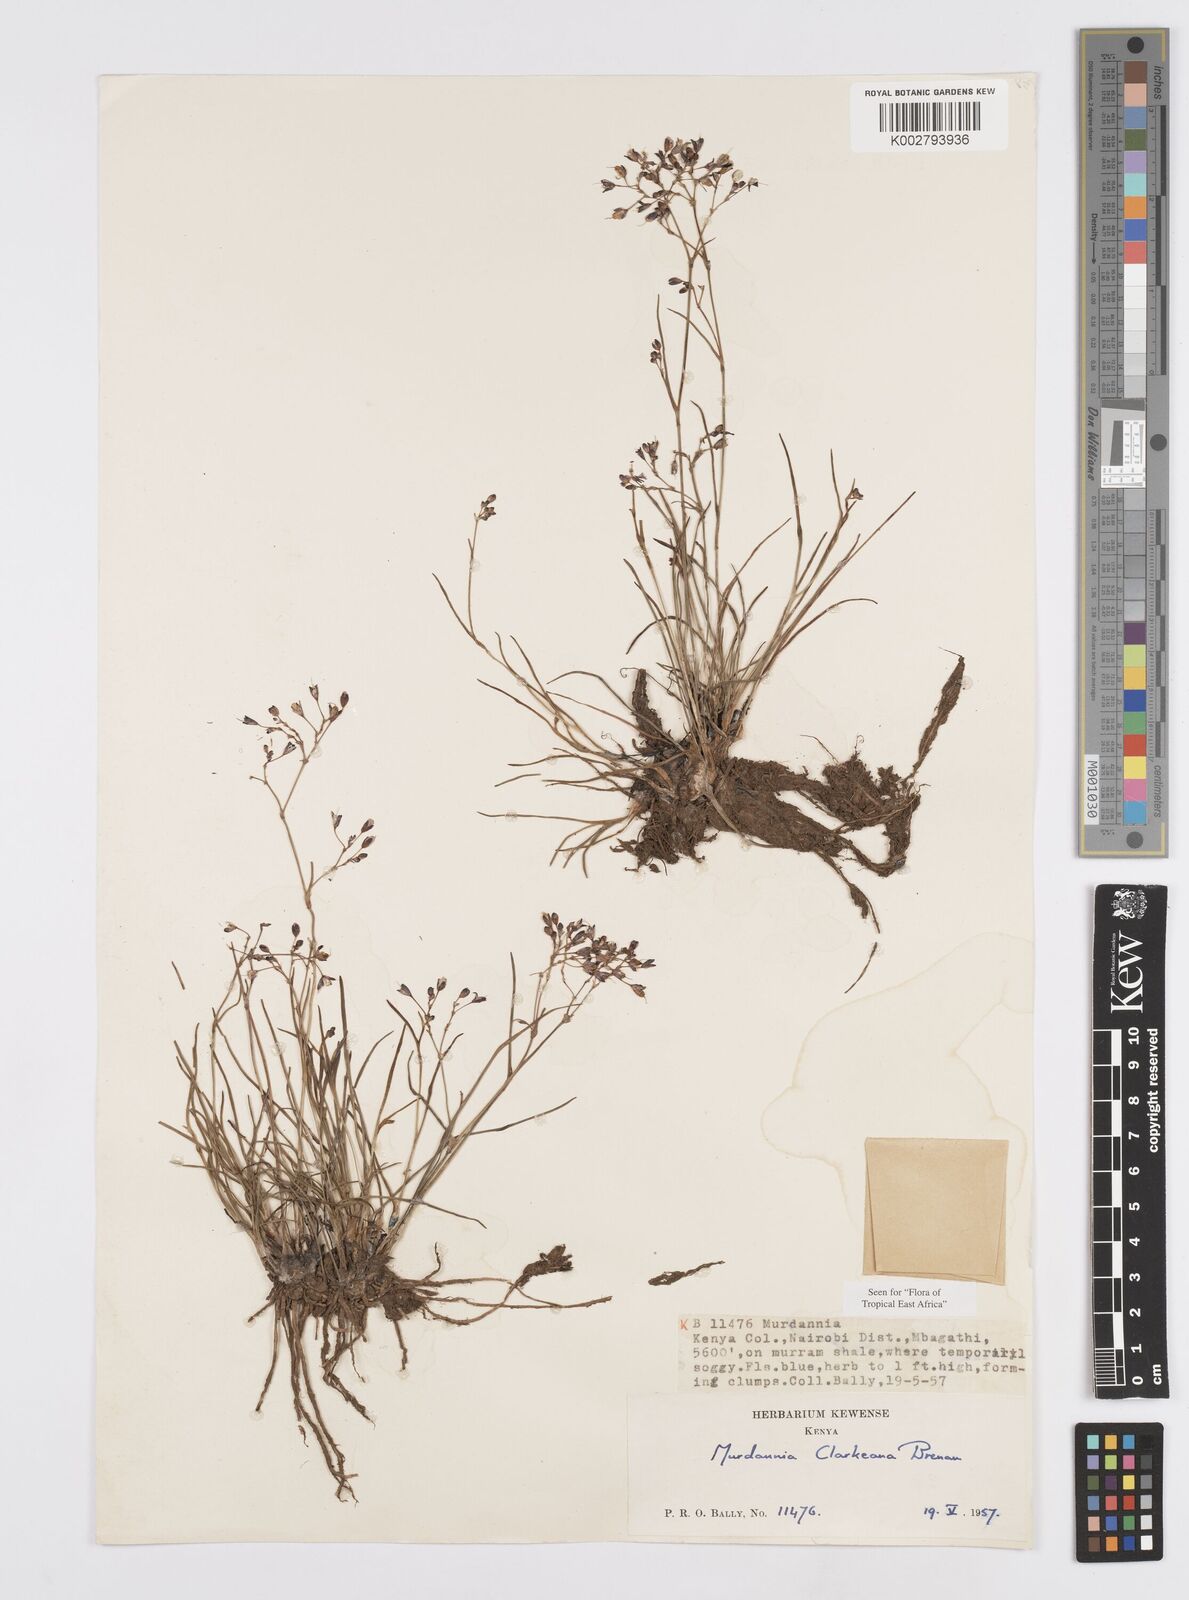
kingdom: Plantae
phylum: Tracheophyta
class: Liliopsida
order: Commelinales
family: Commelinaceae
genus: Murdannia
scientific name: Murdannia clarkeana
